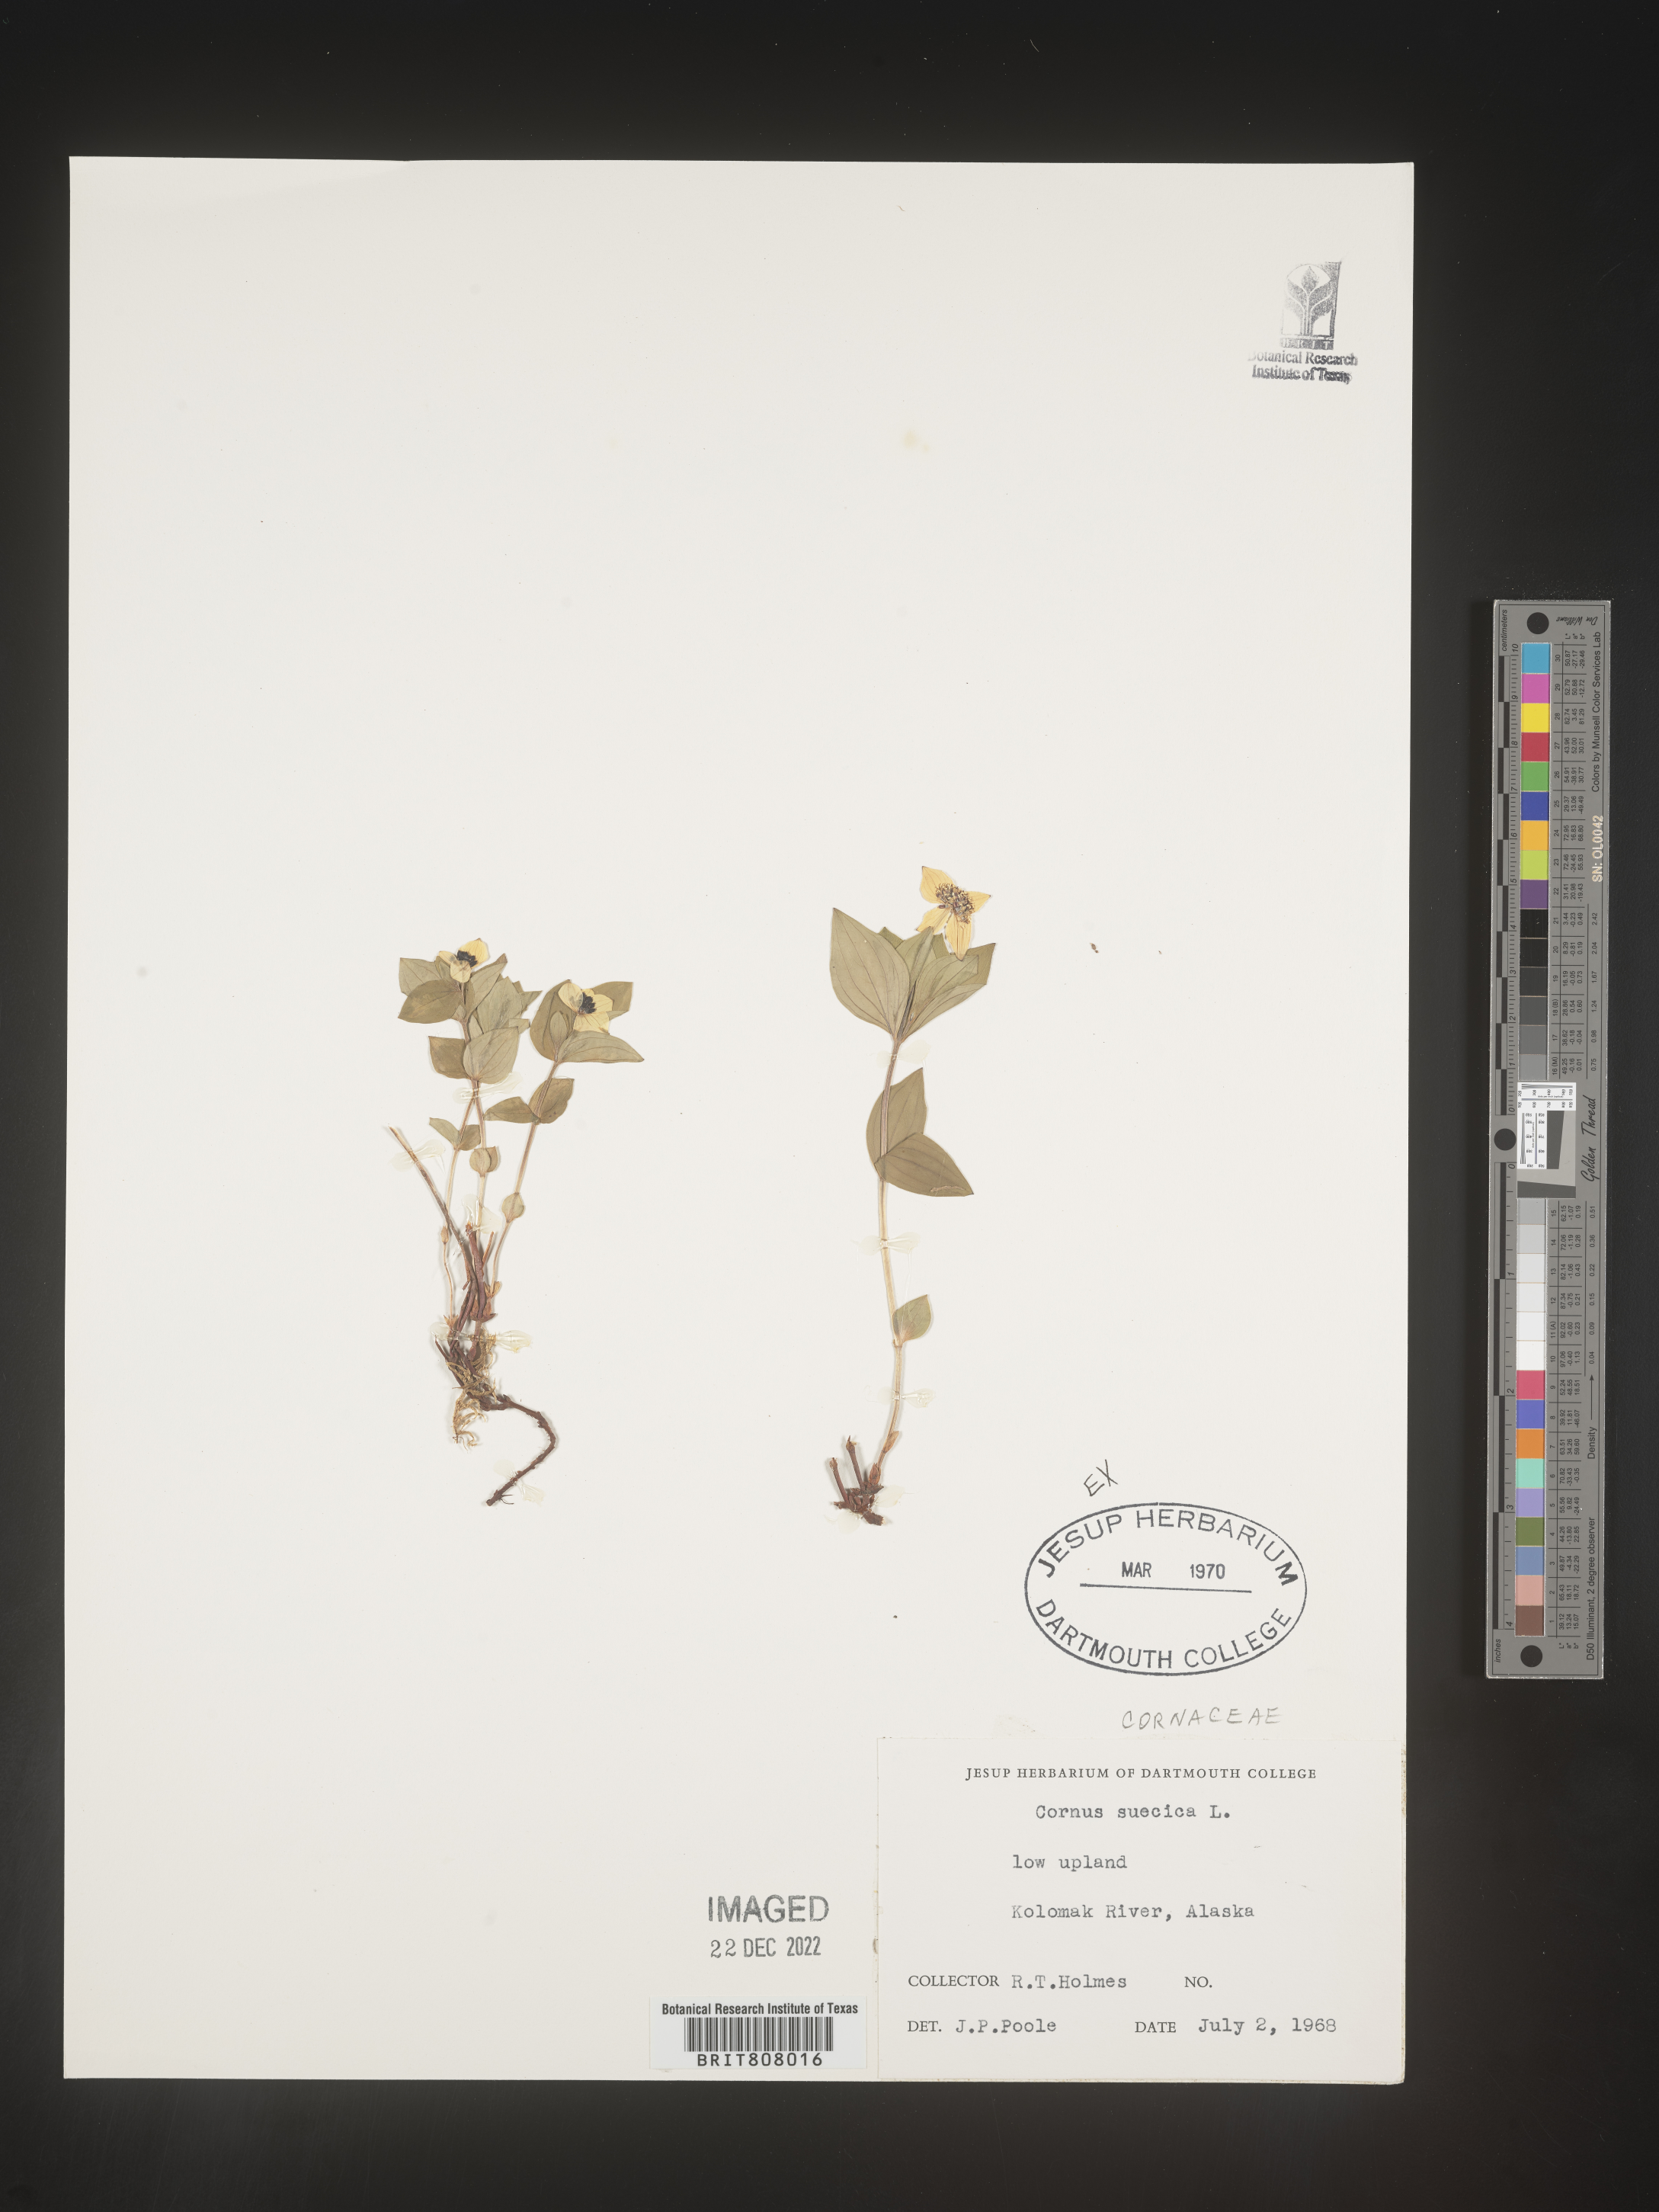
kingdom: Plantae
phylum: Tracheophyta
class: Magnoliopsida
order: Cornales
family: Cornaceae
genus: Cornus
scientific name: Cornus
